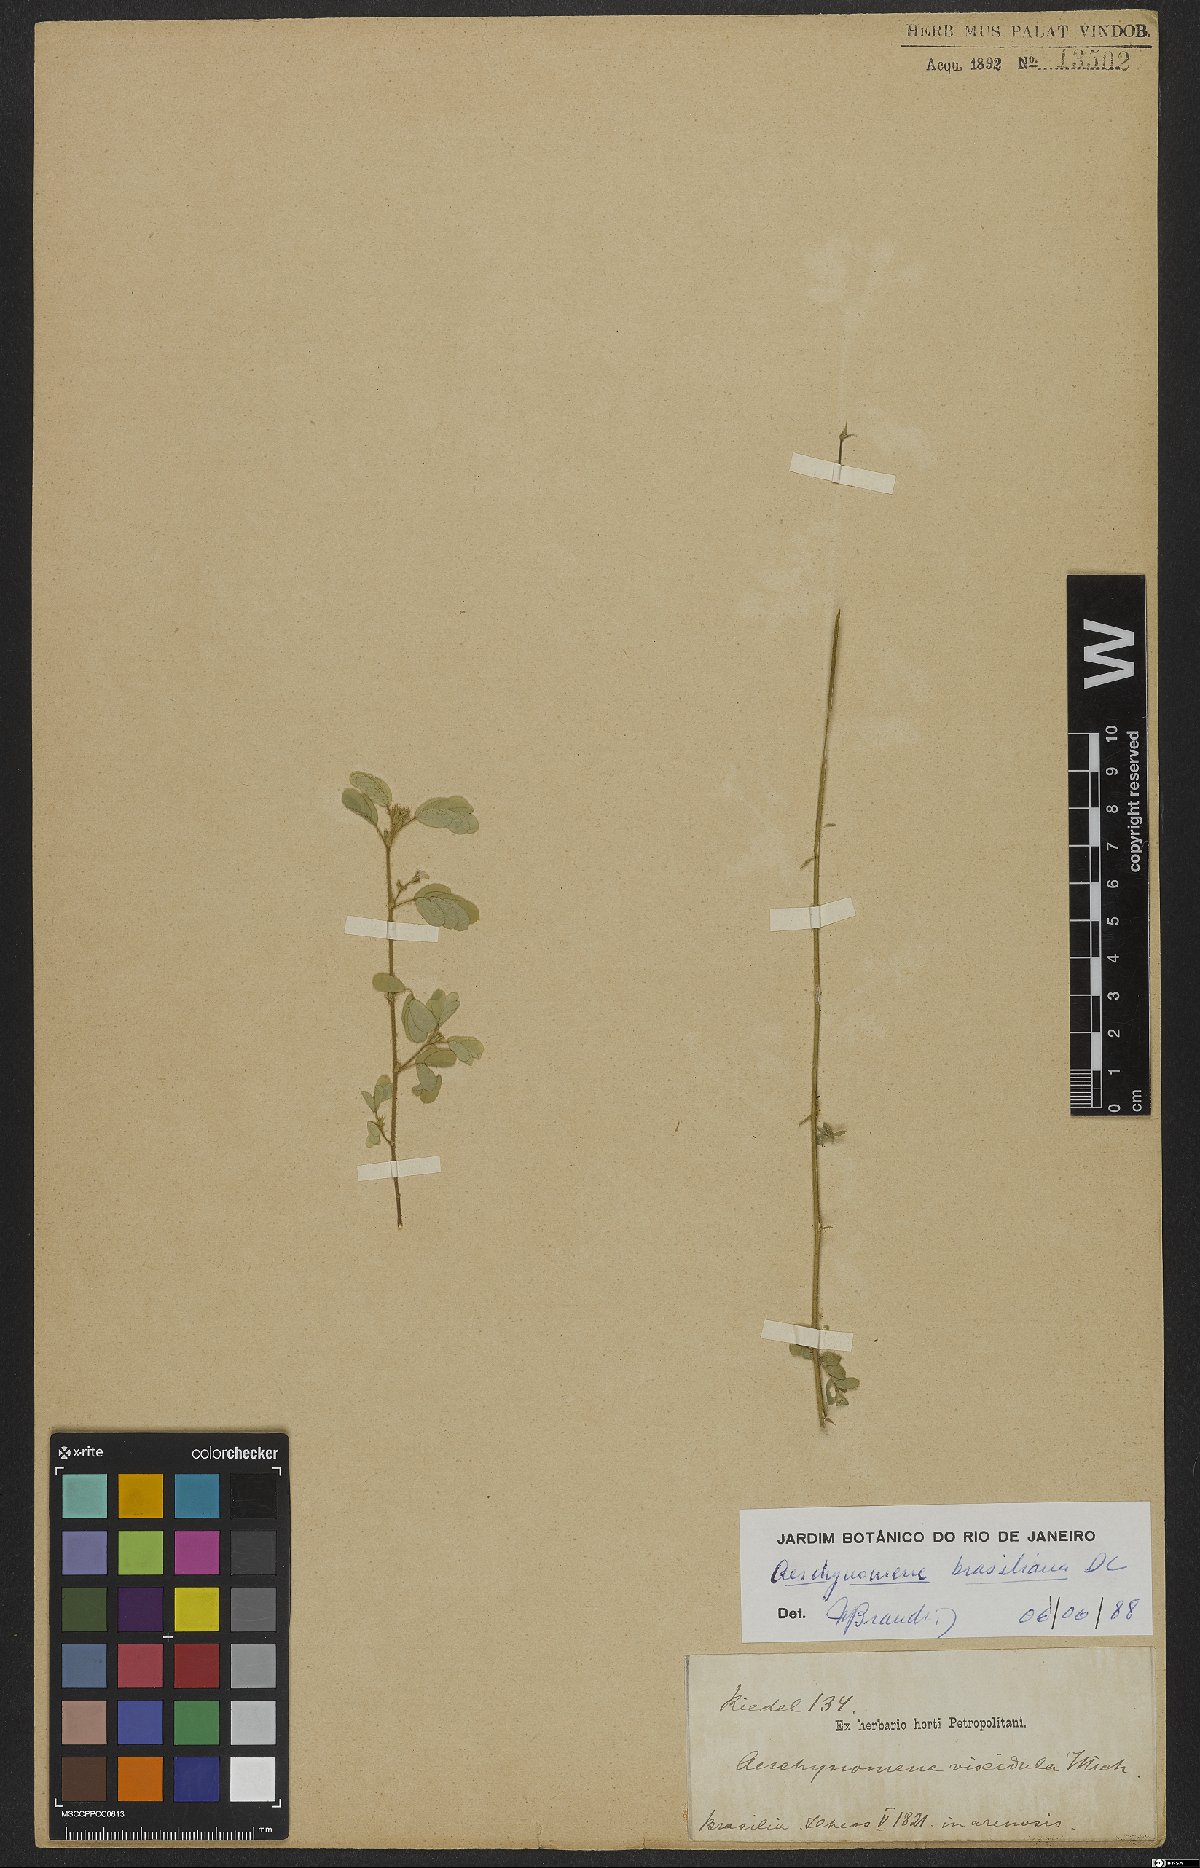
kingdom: Plantae
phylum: Tracheophyta
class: Magnoliopsida
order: Fabales
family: Fabaceae
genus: Ctenodon
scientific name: Ctenodon brasilianus
